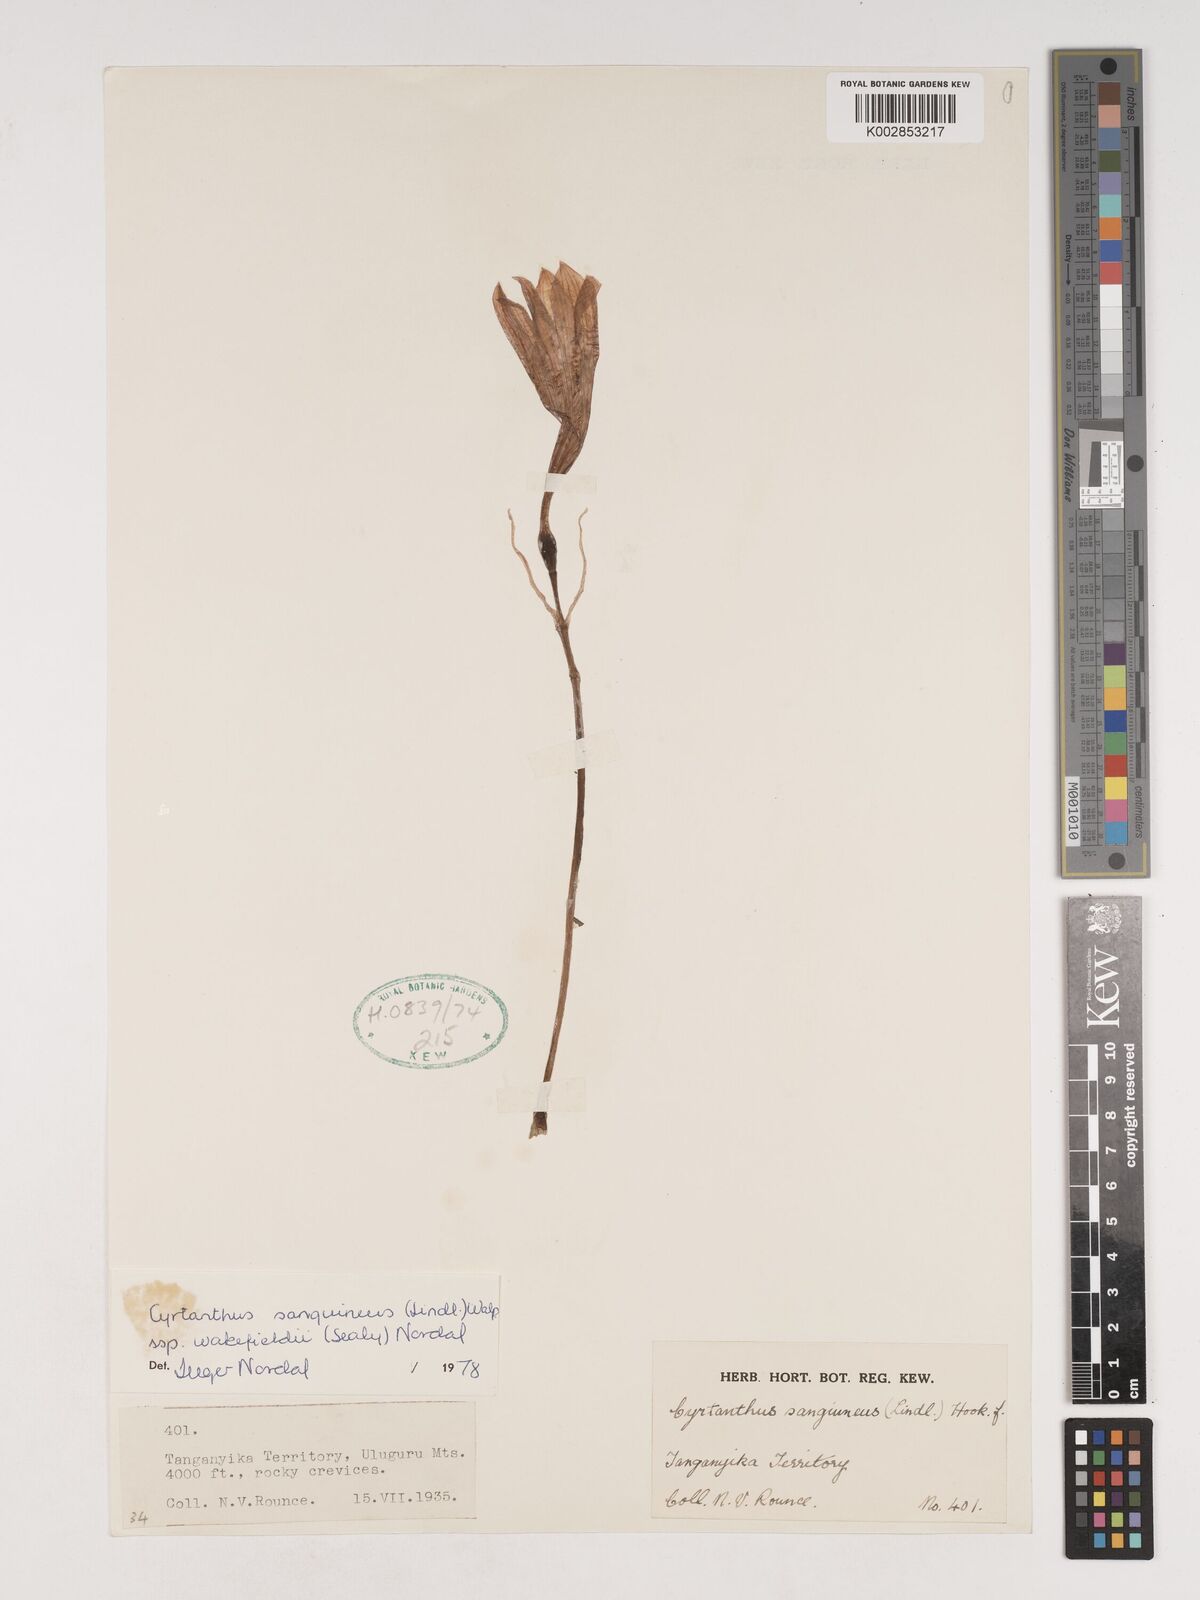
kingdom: Plantae
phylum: Tracheophyta
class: Liliopsida
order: Asparagales
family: Amaryllidaceae
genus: Cyrtanthus
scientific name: Cyrtanthus sanguineus
